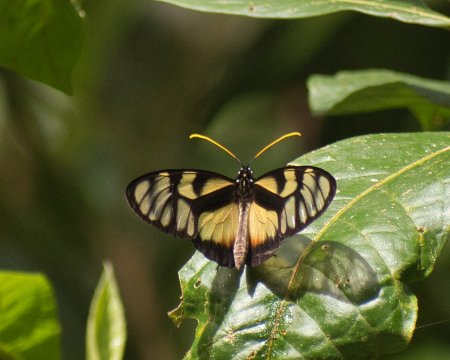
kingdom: Animalia
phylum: Arthropoda
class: Insecta
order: Lepidoptera
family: Nymphalidae
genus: Olyras
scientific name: Olyras insignis
